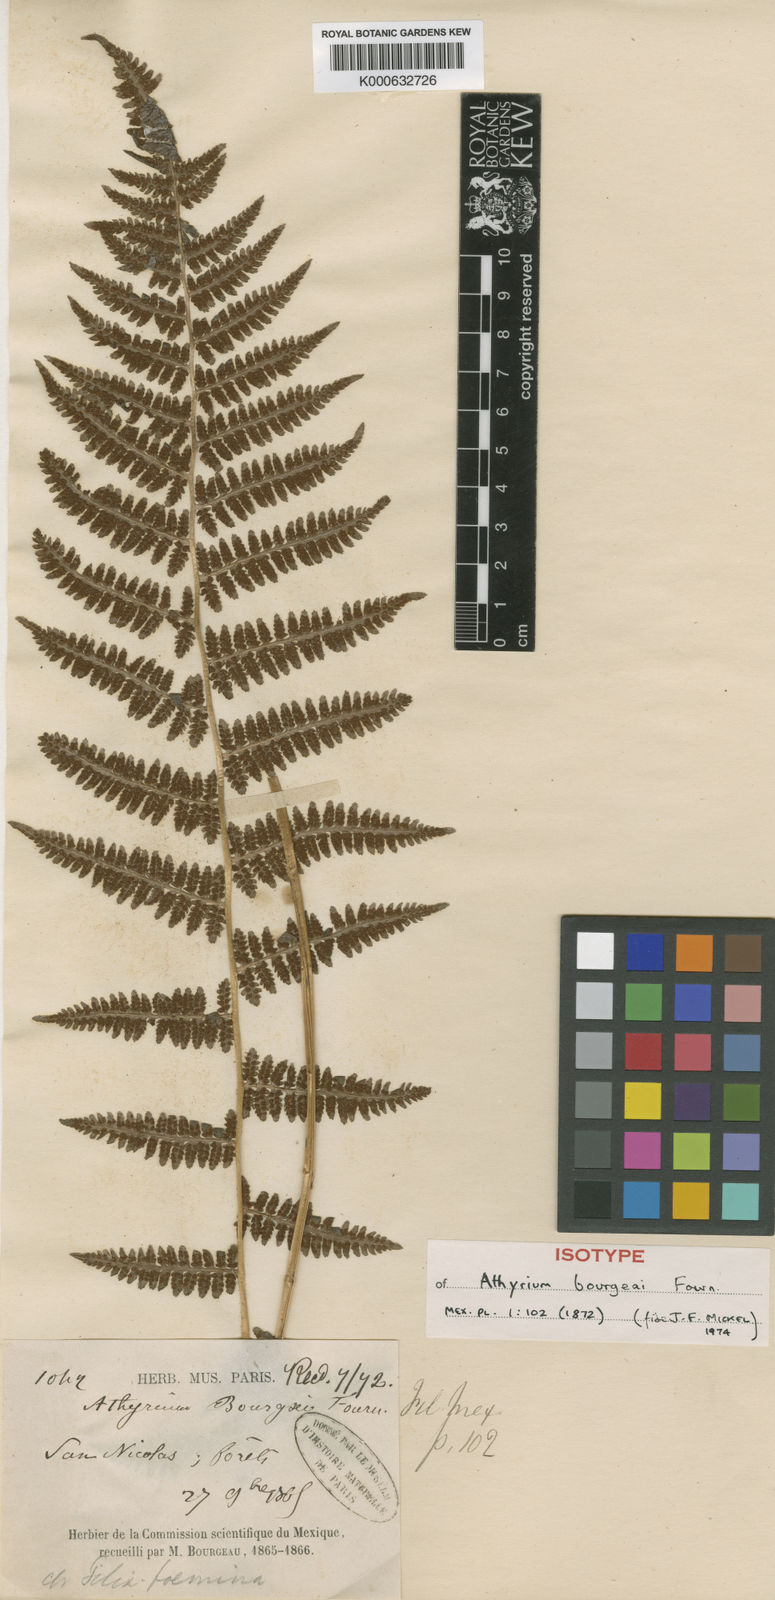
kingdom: Plantae
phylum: Tracheophyta
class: Polypodiopsida
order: Polypodiales
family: Athyriaceae
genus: Athyrium
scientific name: Athyrium
